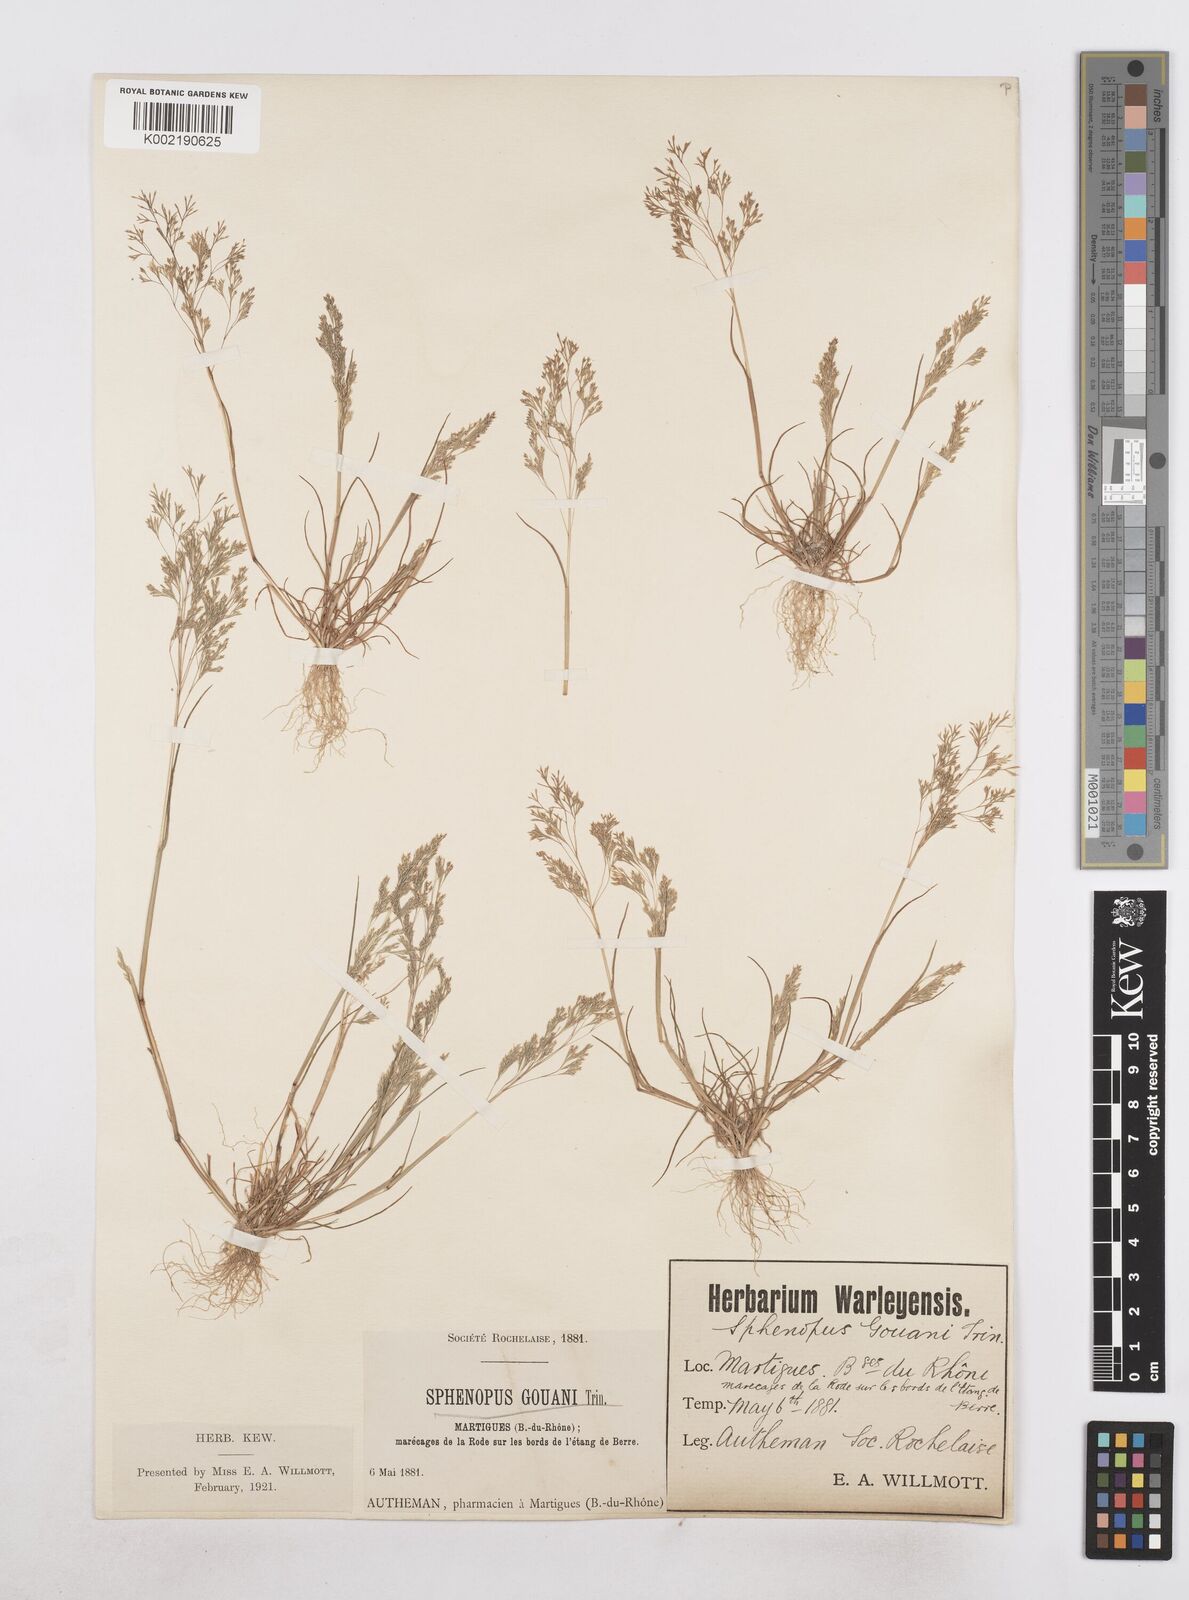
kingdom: Plantae
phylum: Tracheophyta
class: Liliopsida
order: Poales
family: Poaceae
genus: Sphenopus
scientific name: Sphenopus divaricatus
